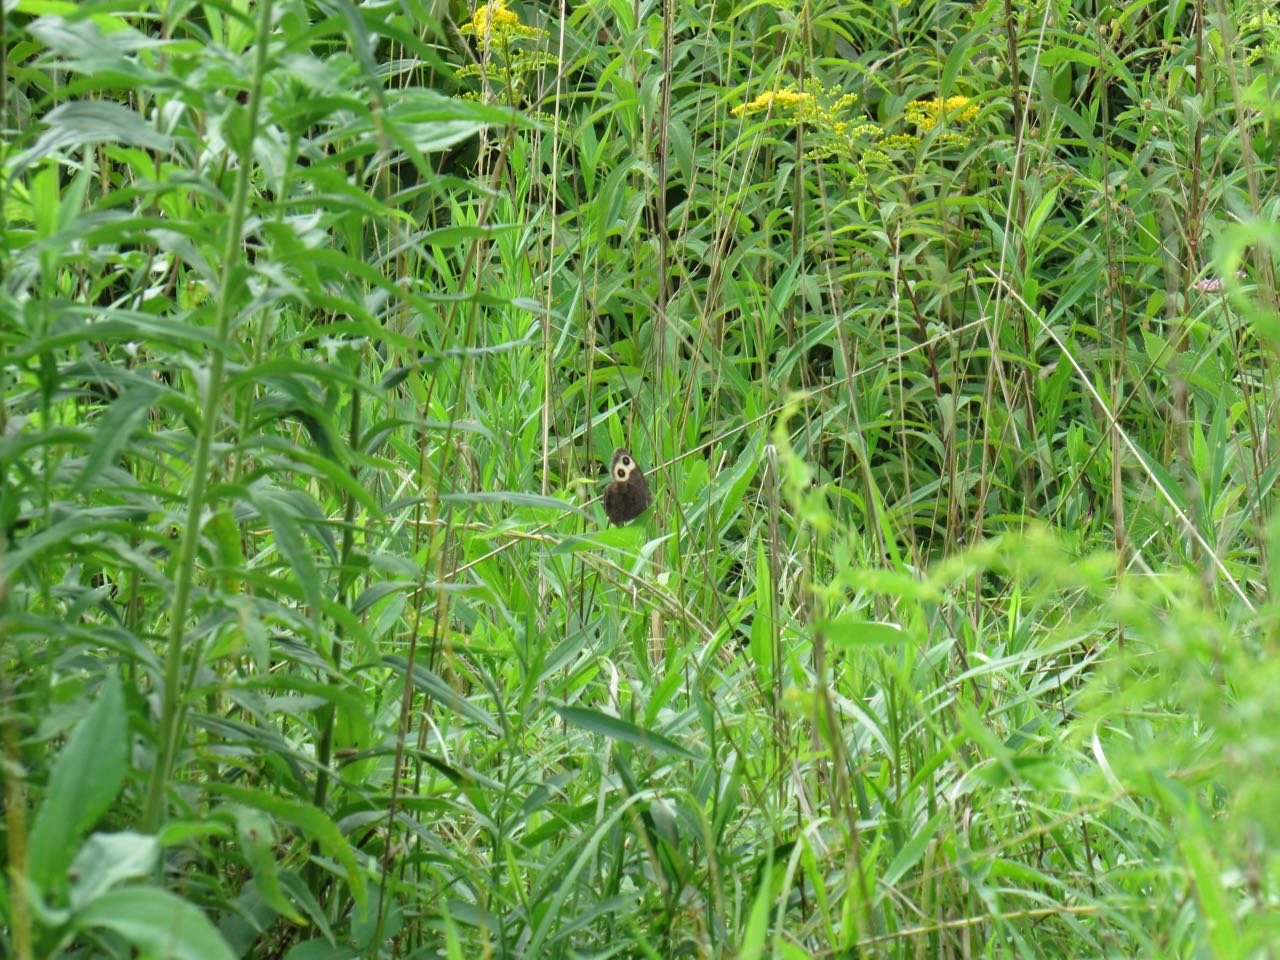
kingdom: Animalia
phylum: Arthropoda
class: Insecta
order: Lepidoptera
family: Nymphalidae
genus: Cercyonis
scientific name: Cercyonis pegala
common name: Common Wood-Nymph
